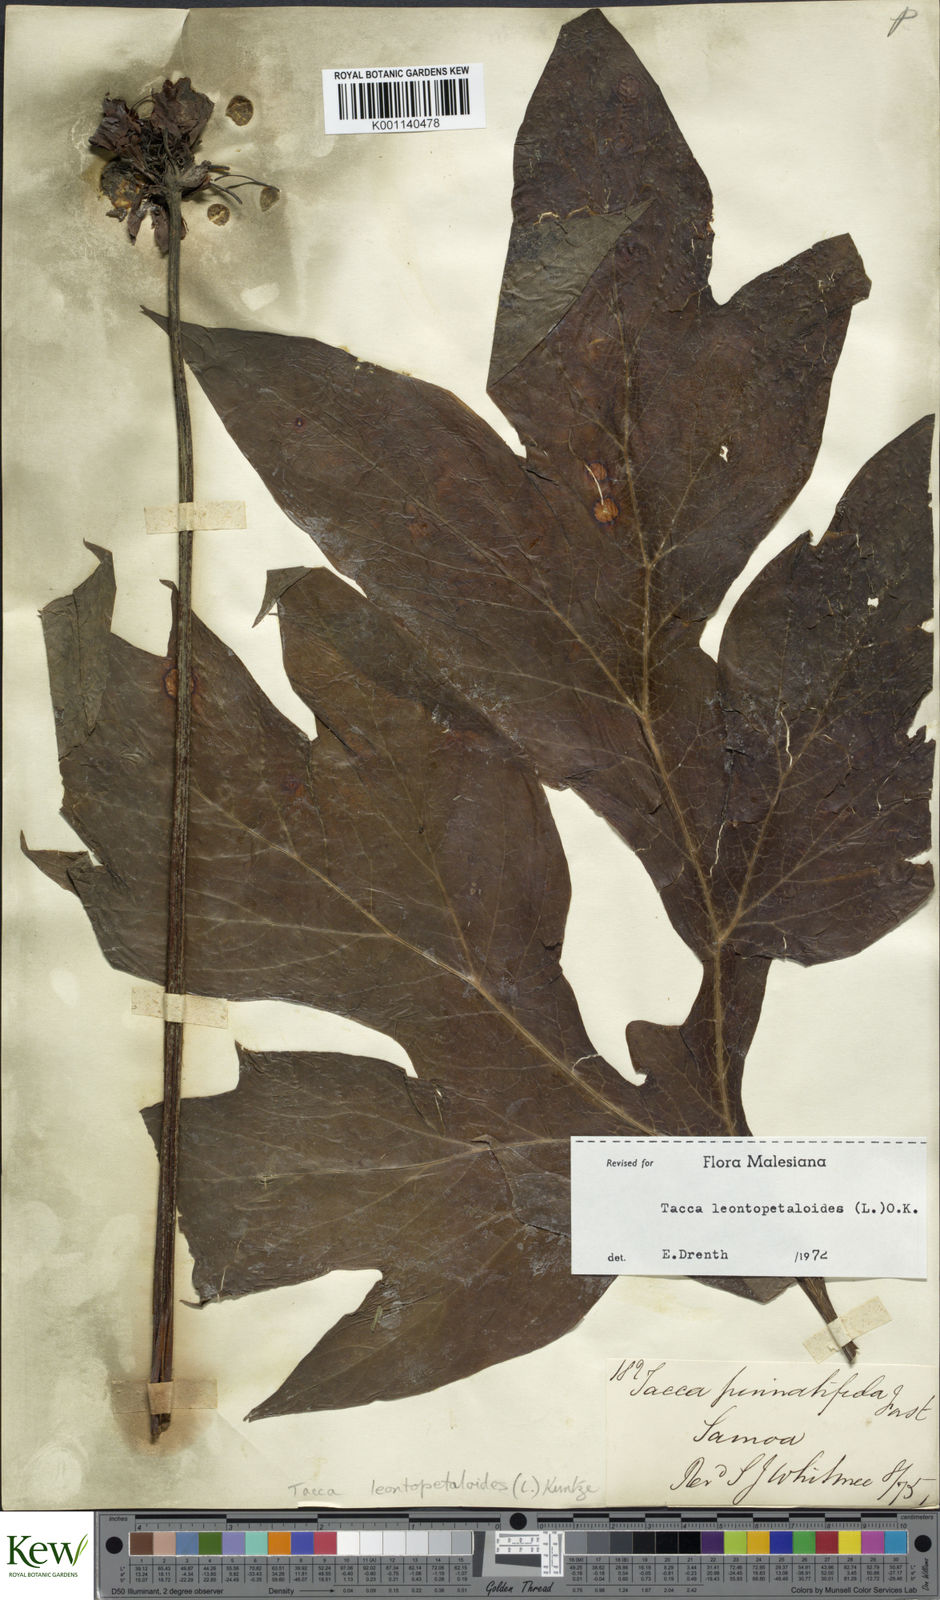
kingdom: Plantae
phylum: Tracheophyta
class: Liliopsida
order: Dioscoreales
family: Dioscoreaceae
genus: Tacca
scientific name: Tacca leontopetaloides
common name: Arrowroot
